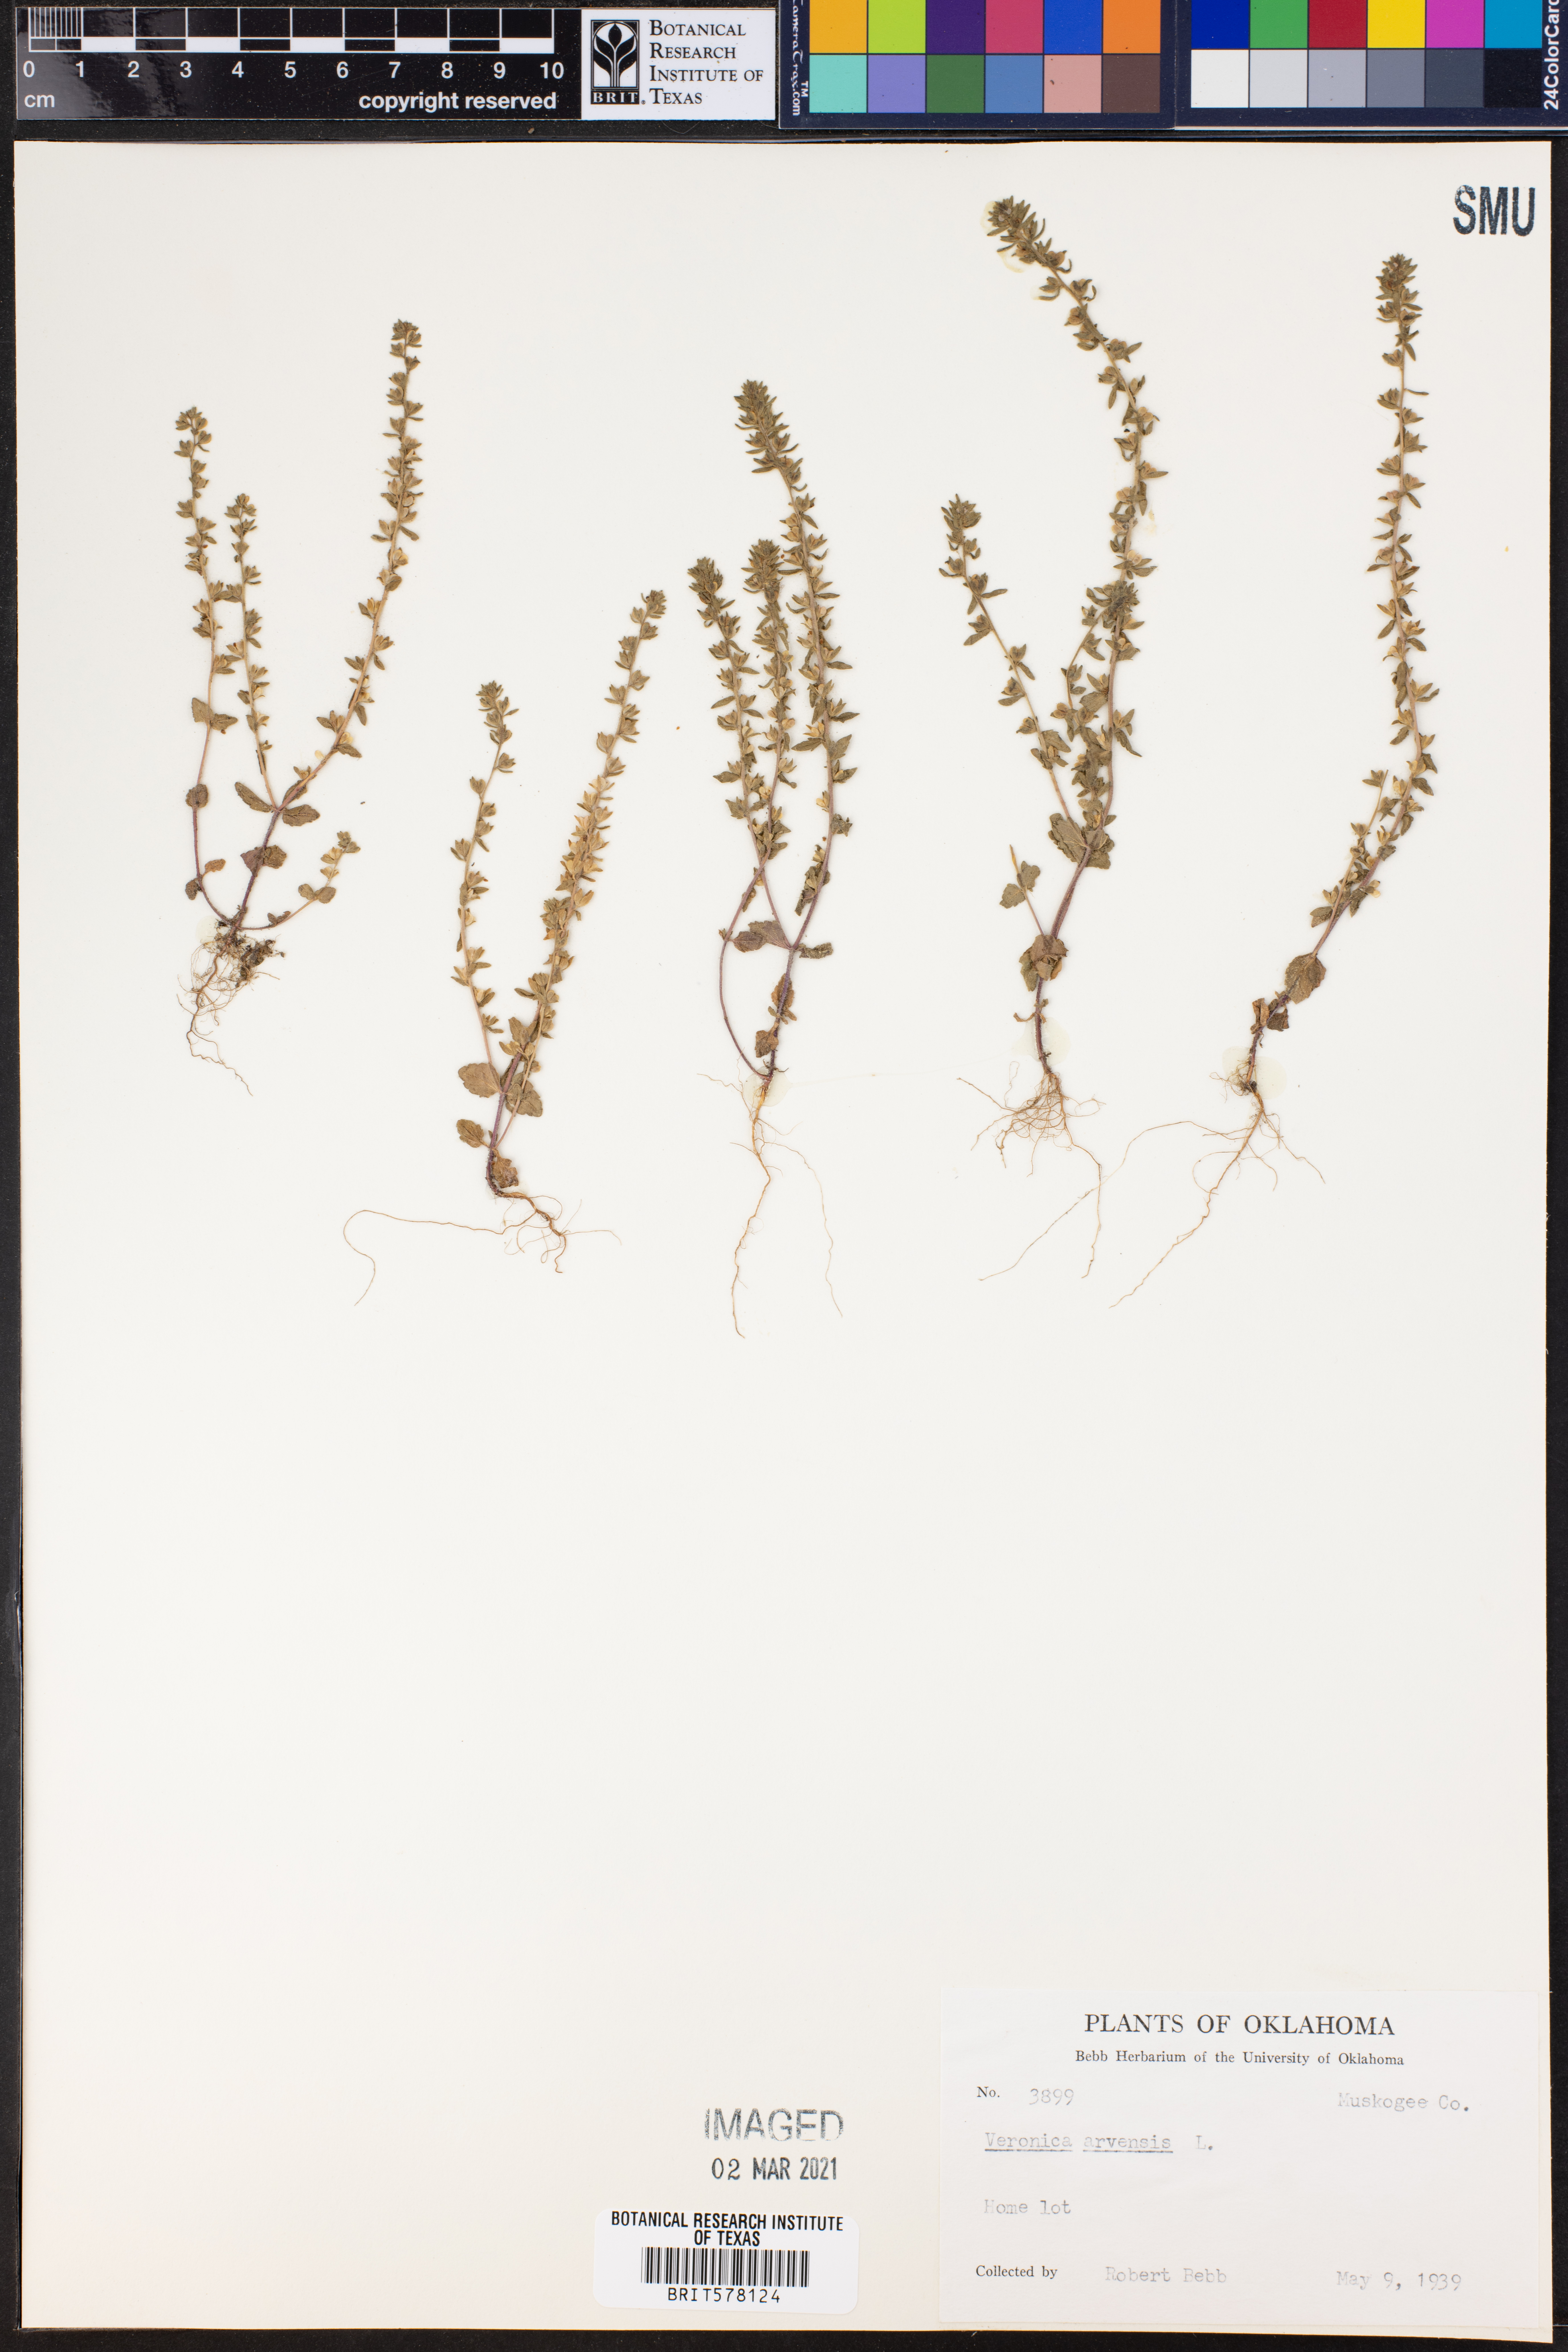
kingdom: Plantae
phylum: Tracheophyta
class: Magnoliopsida
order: Lamiales
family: Plantaginaceae
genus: Veronica
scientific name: Veronica arvensis
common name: Corn speedwell
